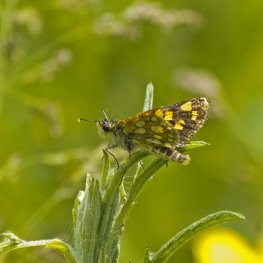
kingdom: Animalia
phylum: Arthropoda
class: Insecta
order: Lepidoptera
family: Hesperiidae
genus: Carterocephalus
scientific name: Carterocephalus palaemon
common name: Chequered Skipper
